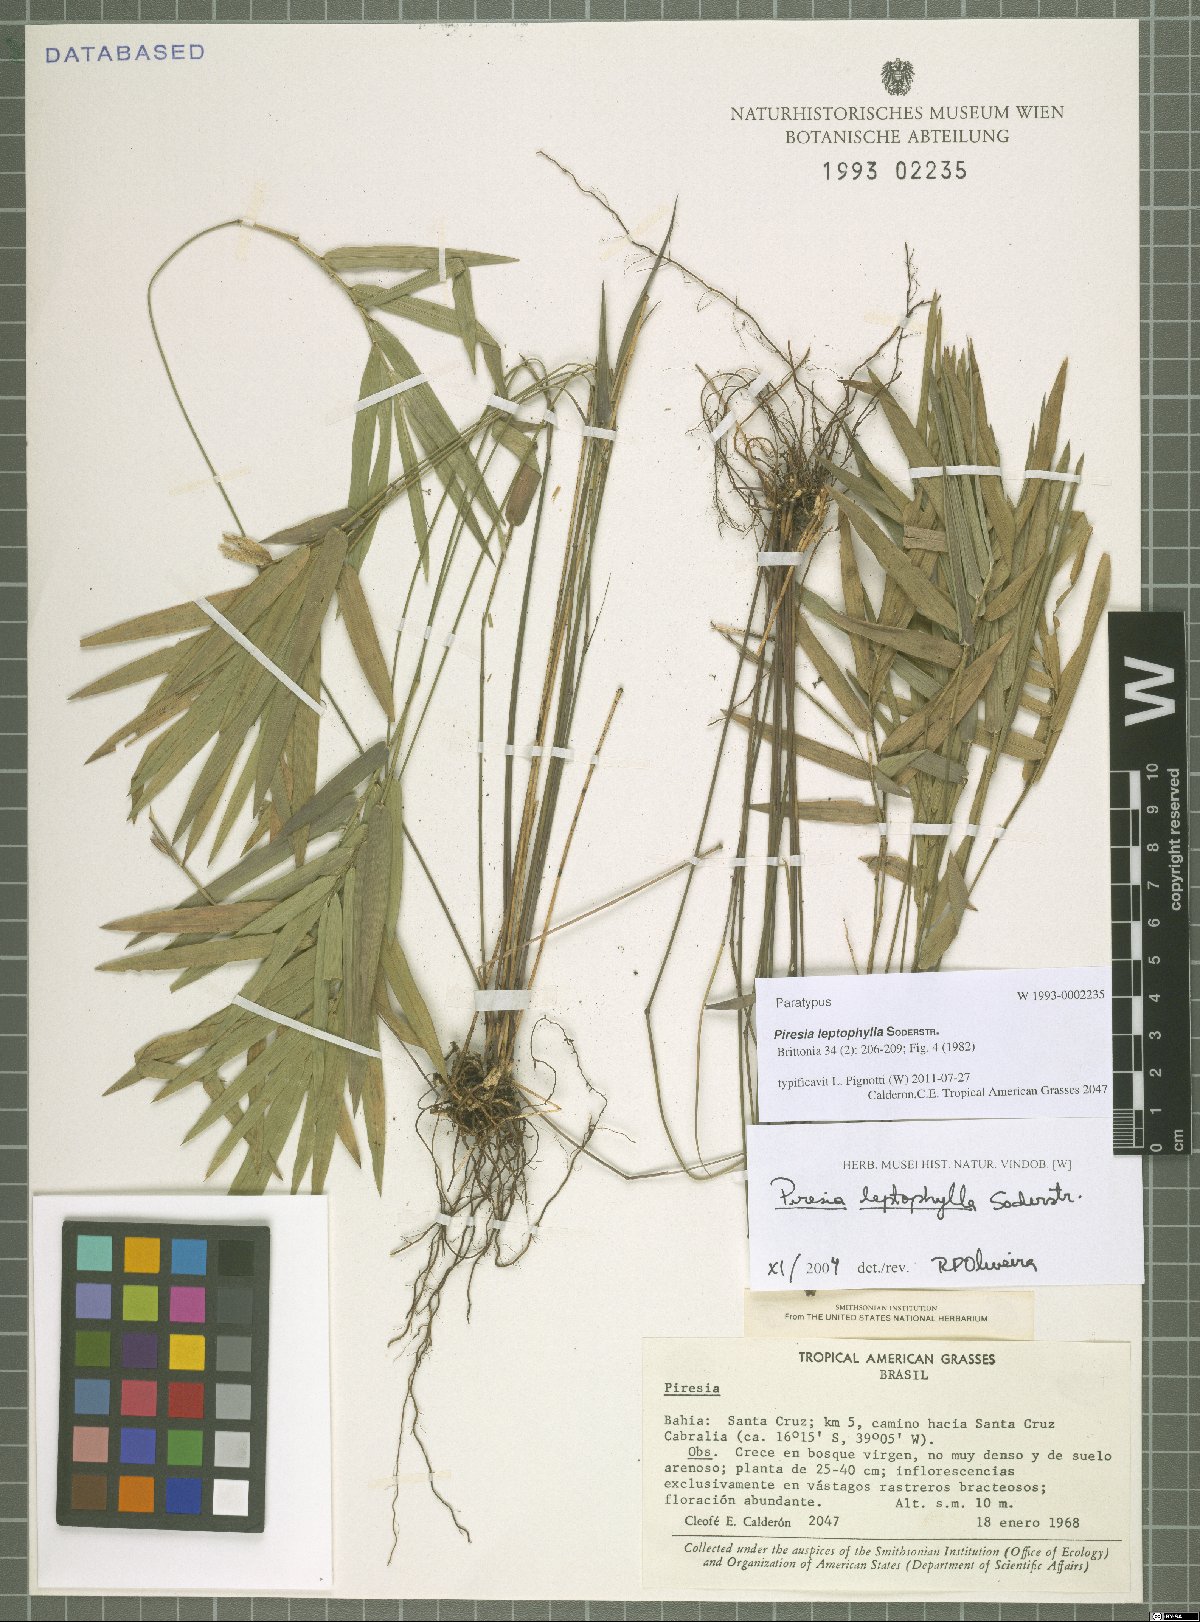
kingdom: Plantae
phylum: Tracheophyta
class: Liliopsida
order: Poales
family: Poaceae
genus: Piresia
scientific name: Piresia leptophylla
